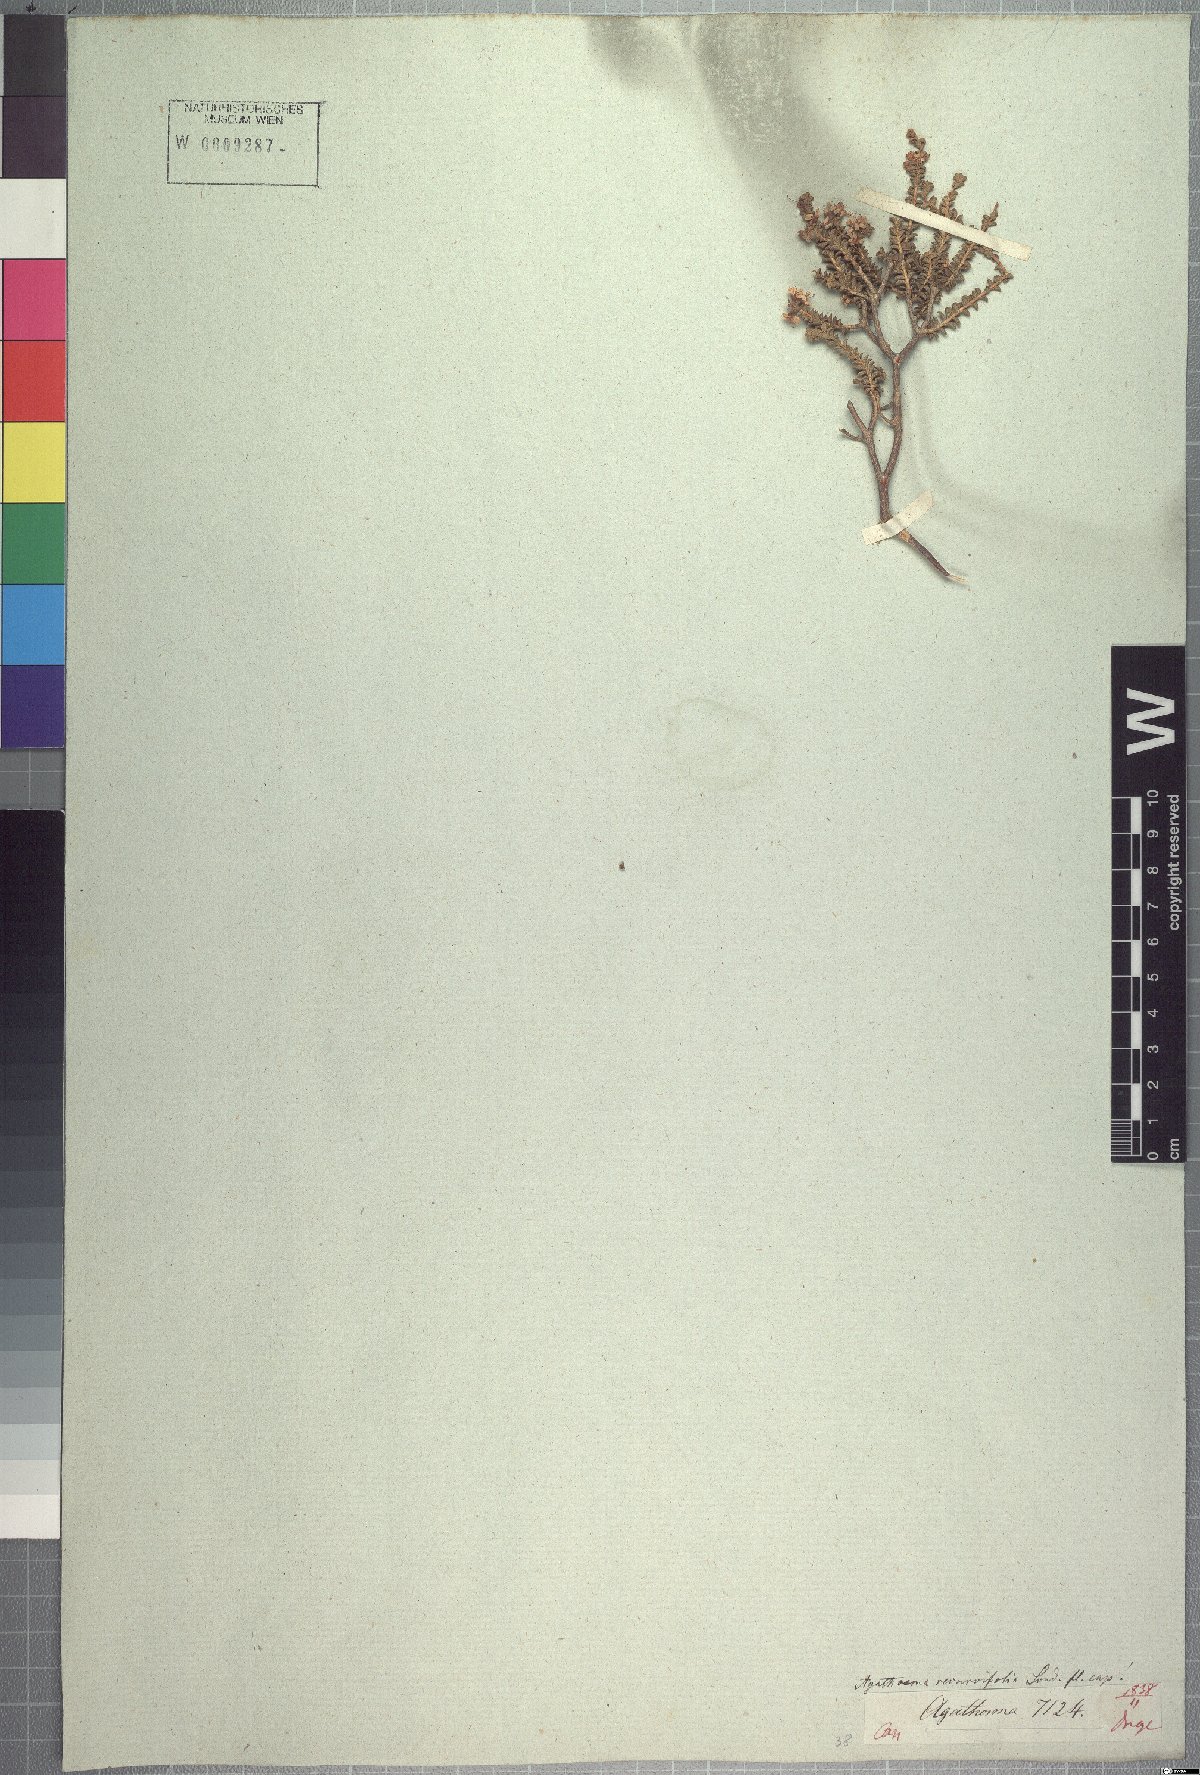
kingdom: Plantae
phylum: Tracheophyta
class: Magnoliopsida
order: Sapindales
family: Rutaceae
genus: Agathosma
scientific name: Agathosma recurvifolia
